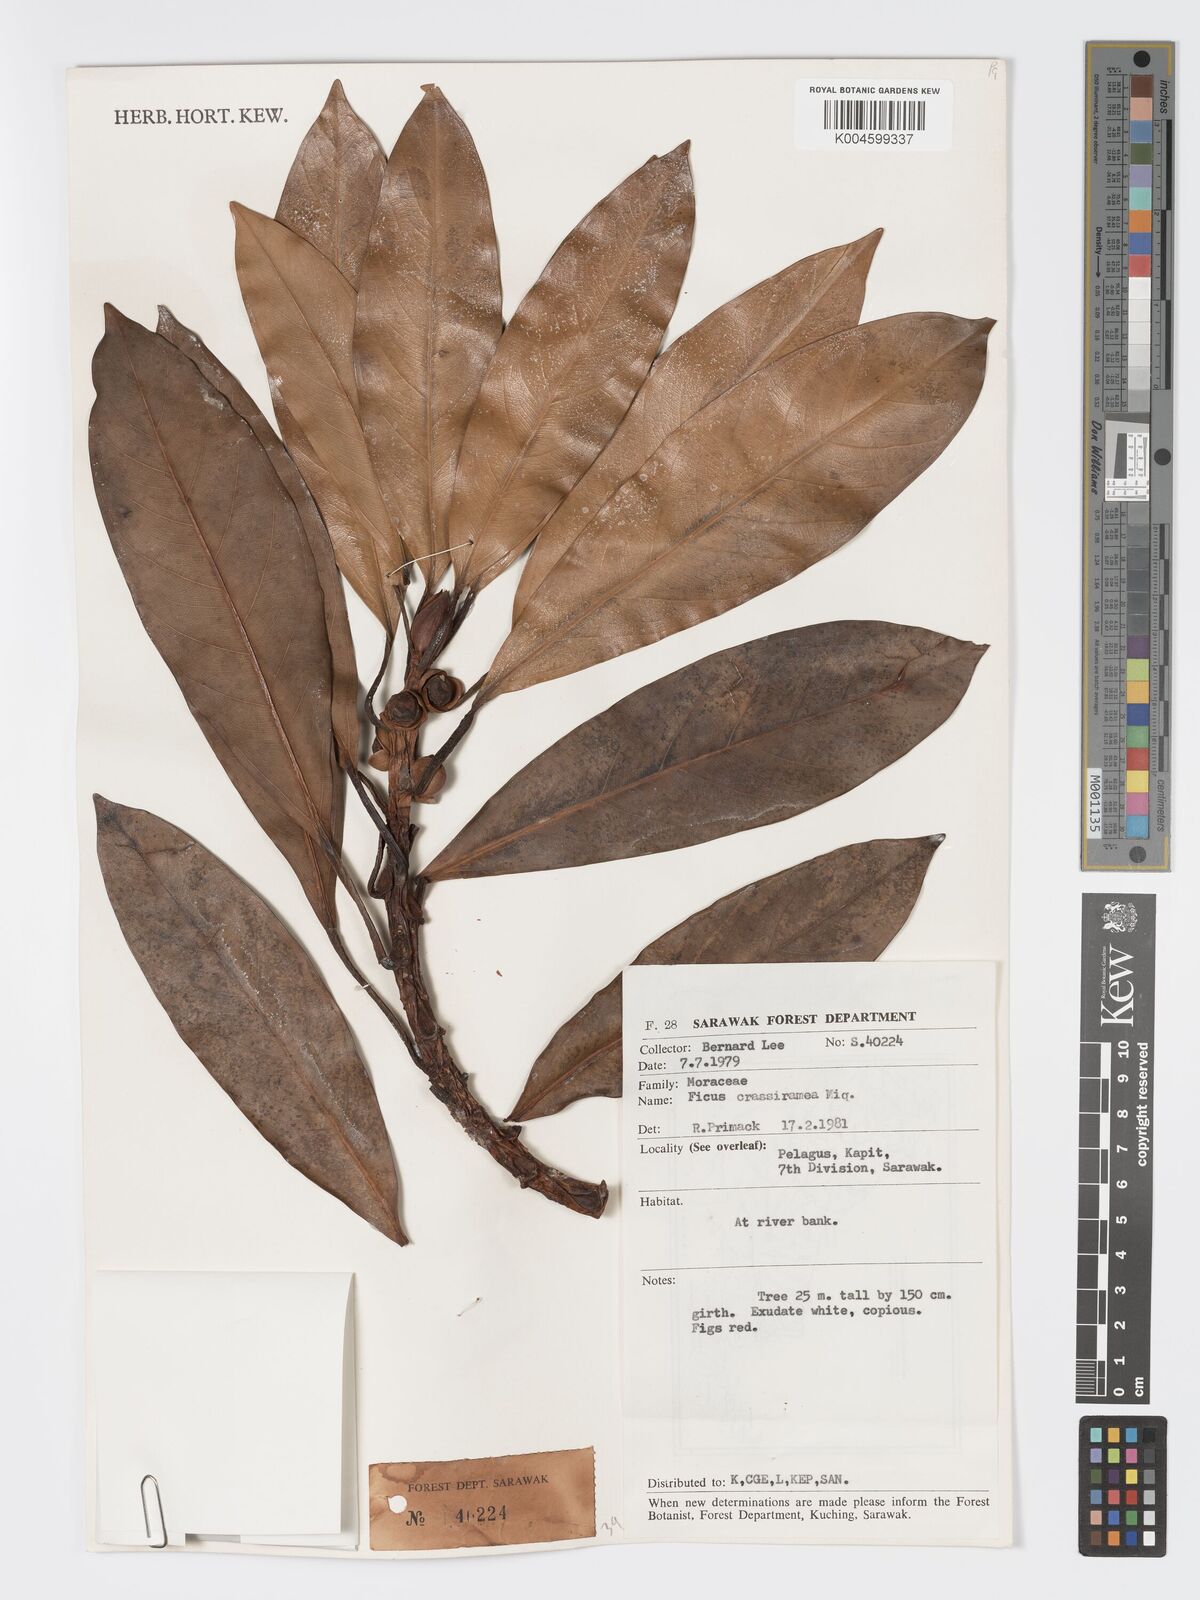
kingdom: Plantae
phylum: Tracheophyta
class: Magnoliopsida
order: Rosales
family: Moraceae
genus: Ficus
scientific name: Ficus crassiramea
